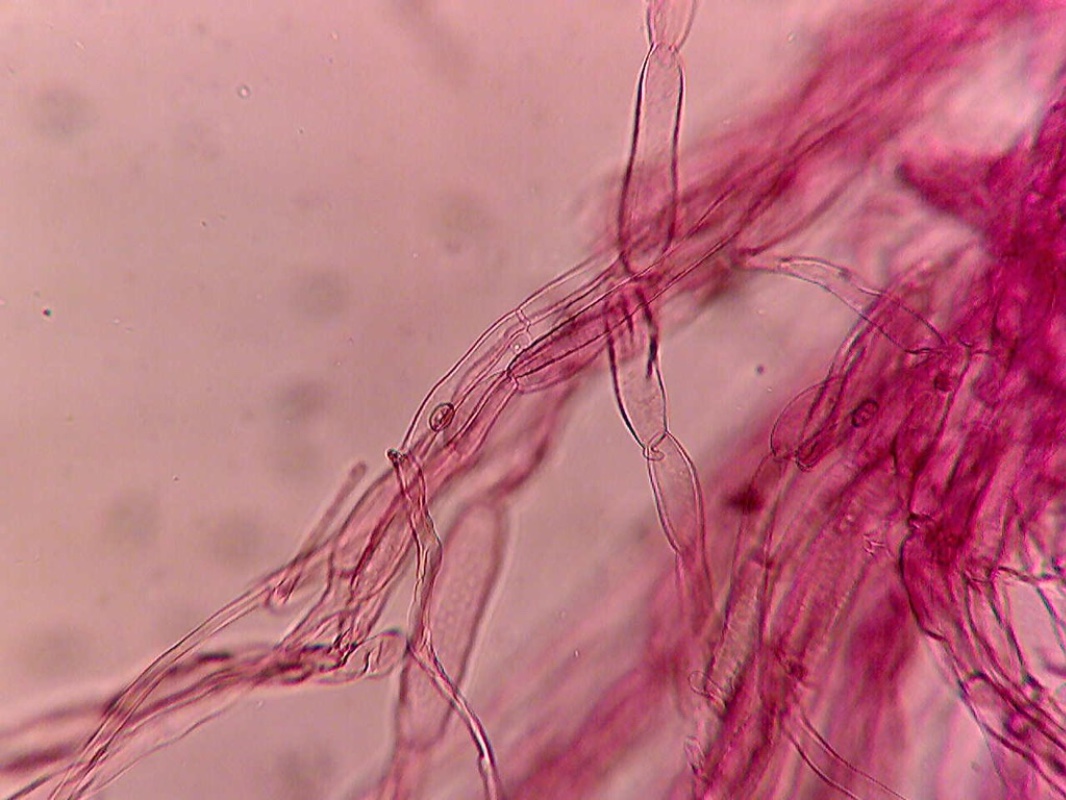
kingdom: Fungi
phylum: Basidiomycota
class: Agaricomycetes
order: Agaricales
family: Inocybaceae
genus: Inocybe
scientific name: Inocybe
